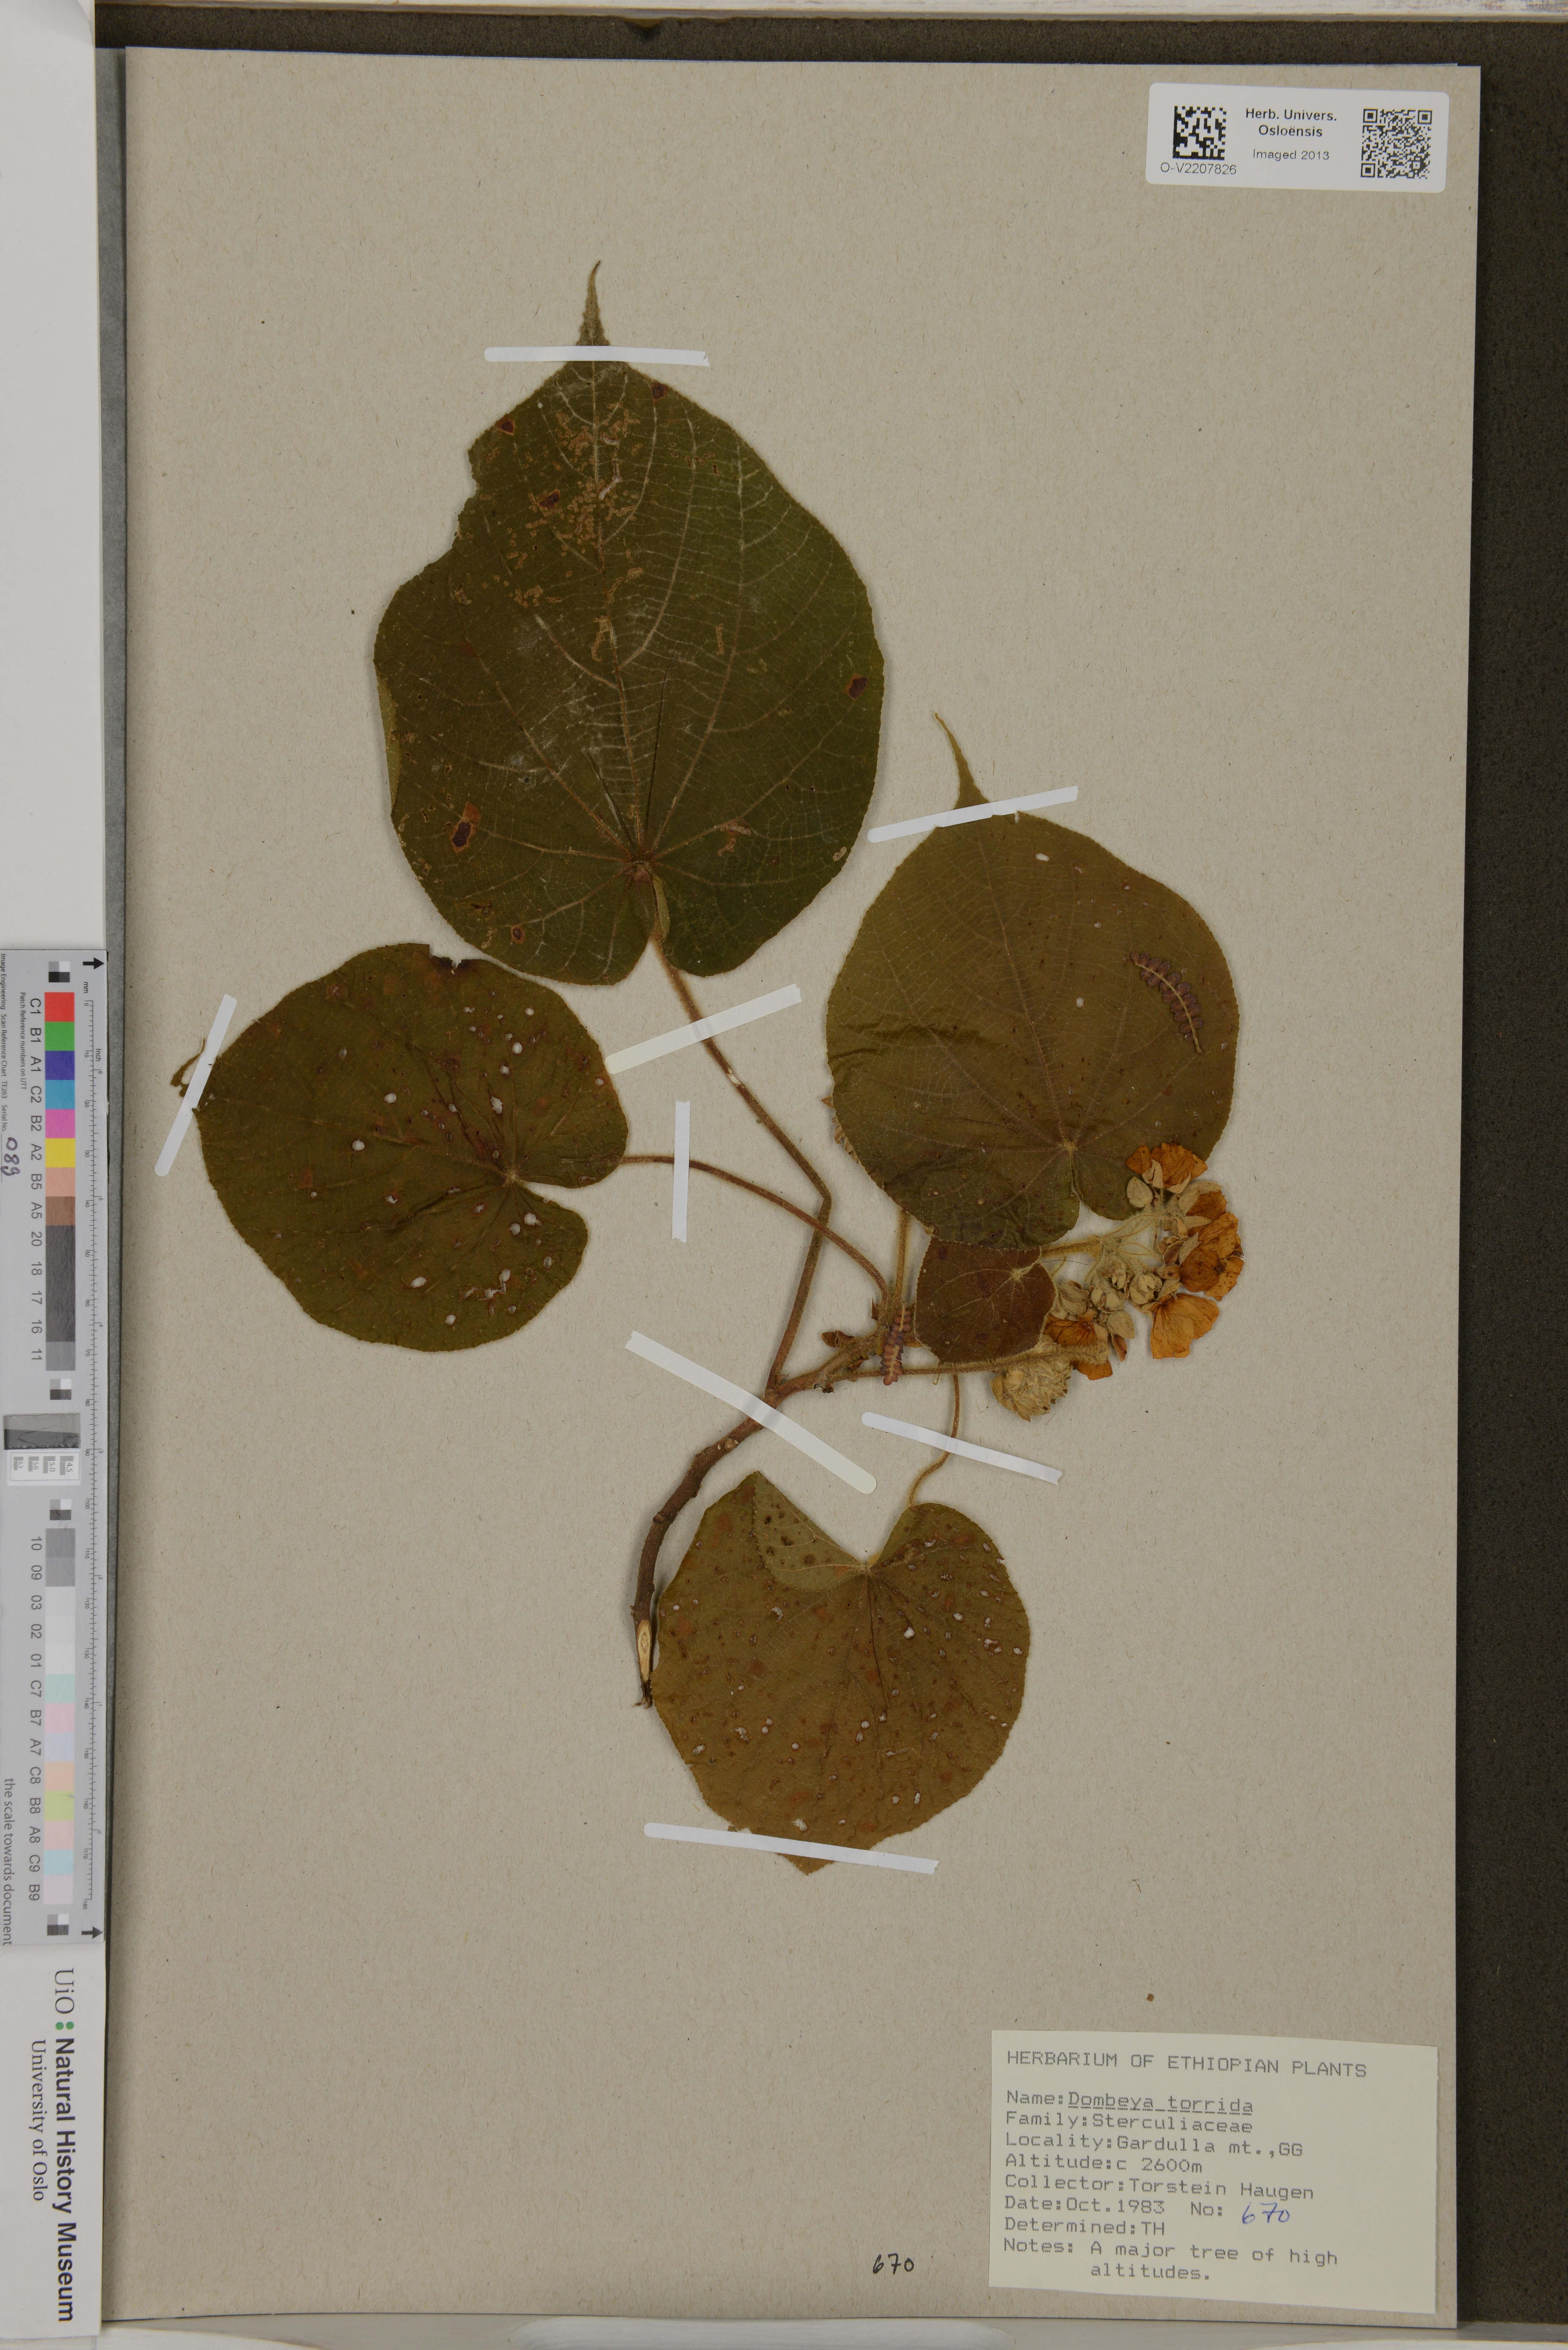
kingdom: Plantae
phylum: Tracheophyta
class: Magnoliopsida
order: Malvales
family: Malvaceae
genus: Dombeya
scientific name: Dombeya torrida
